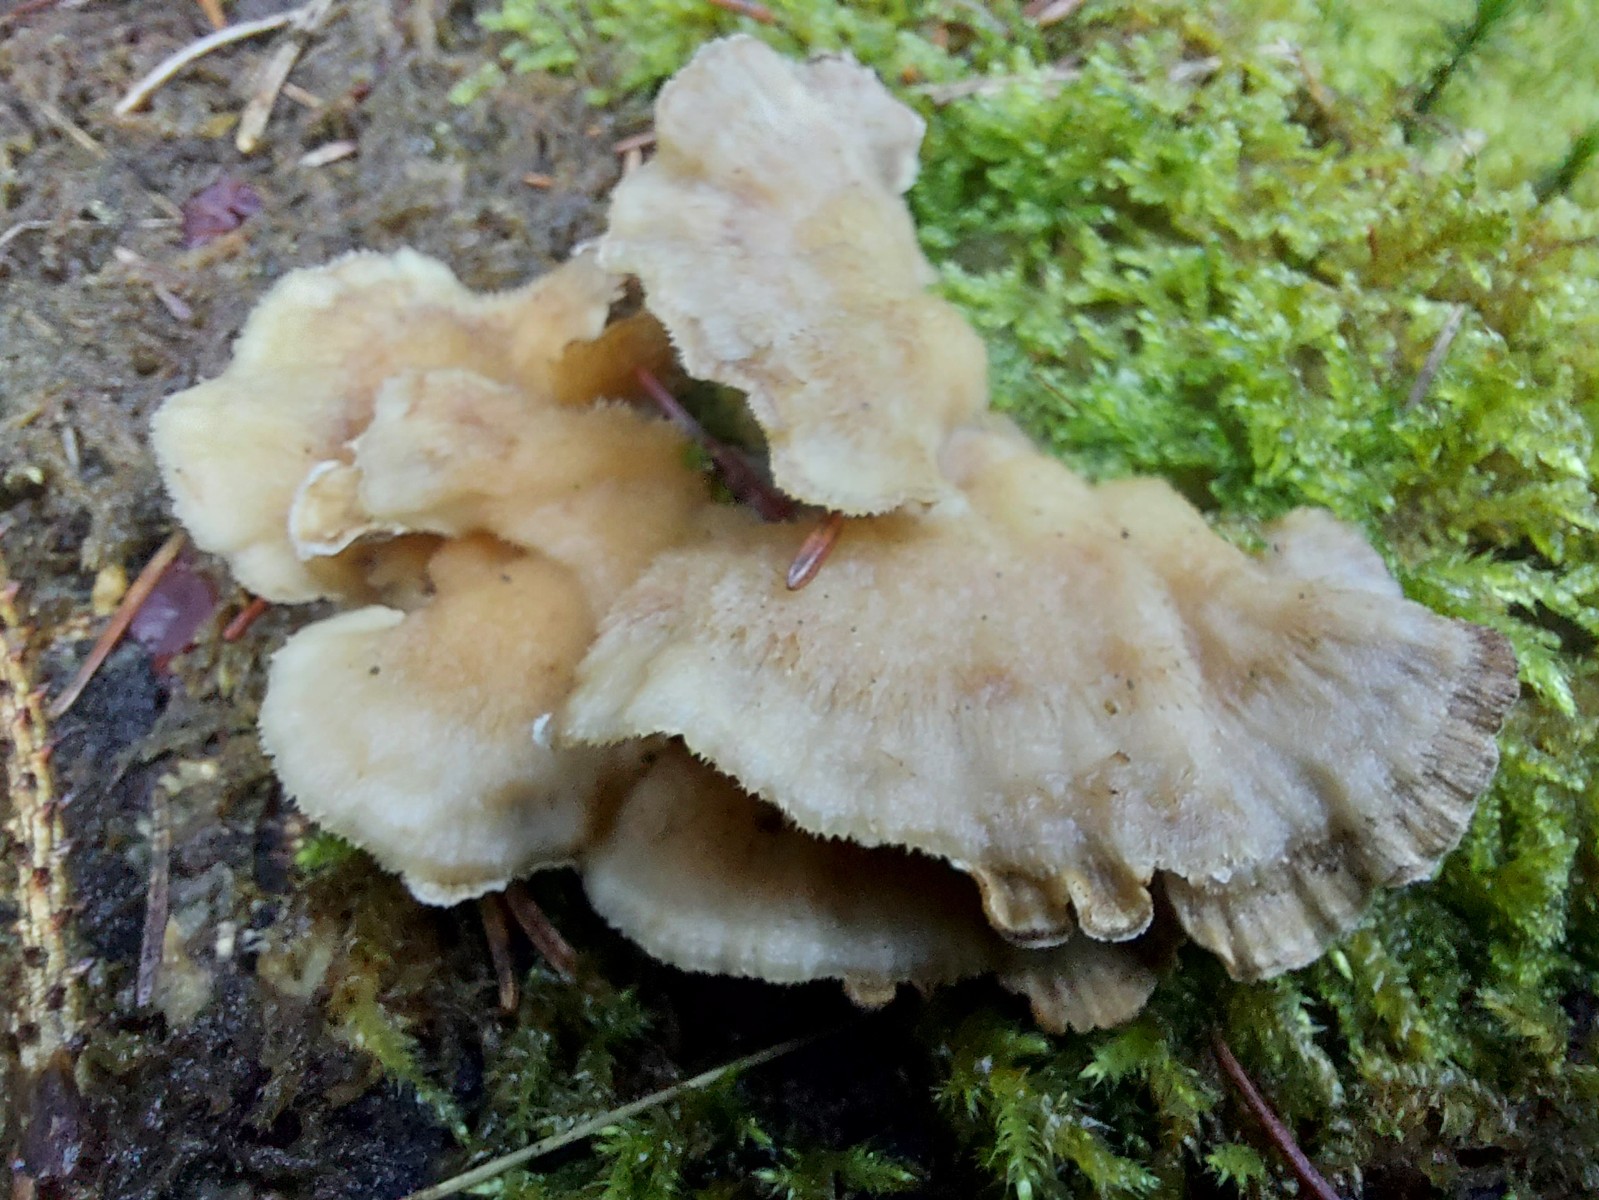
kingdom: Fungi
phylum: Basidiomycota
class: Agaricomycetes
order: Polyporales
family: Phanerochaetaceae
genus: Bjerkandera
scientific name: Bjerkandera adusta
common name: sveden sodporesvamp
